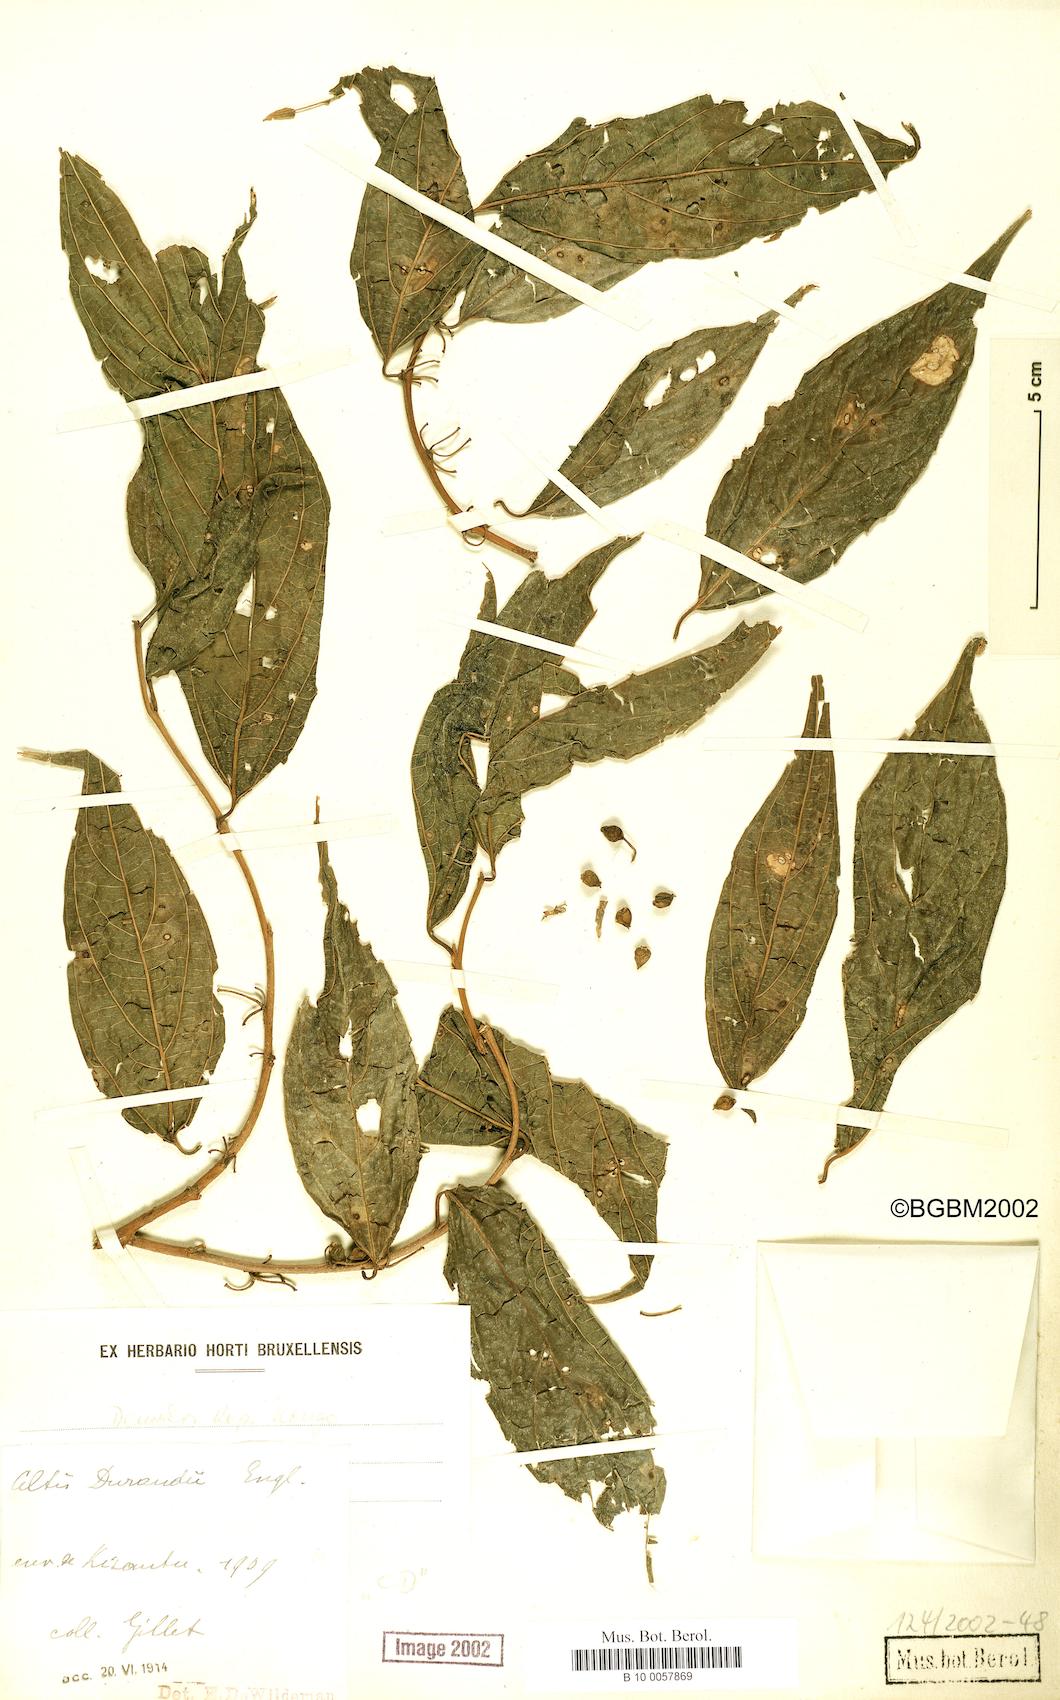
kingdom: Plantae
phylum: Tracheophyta
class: Magnoliopsida
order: Rosales
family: Cannabaceae
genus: Celtis
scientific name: Celtis gomphophylla
